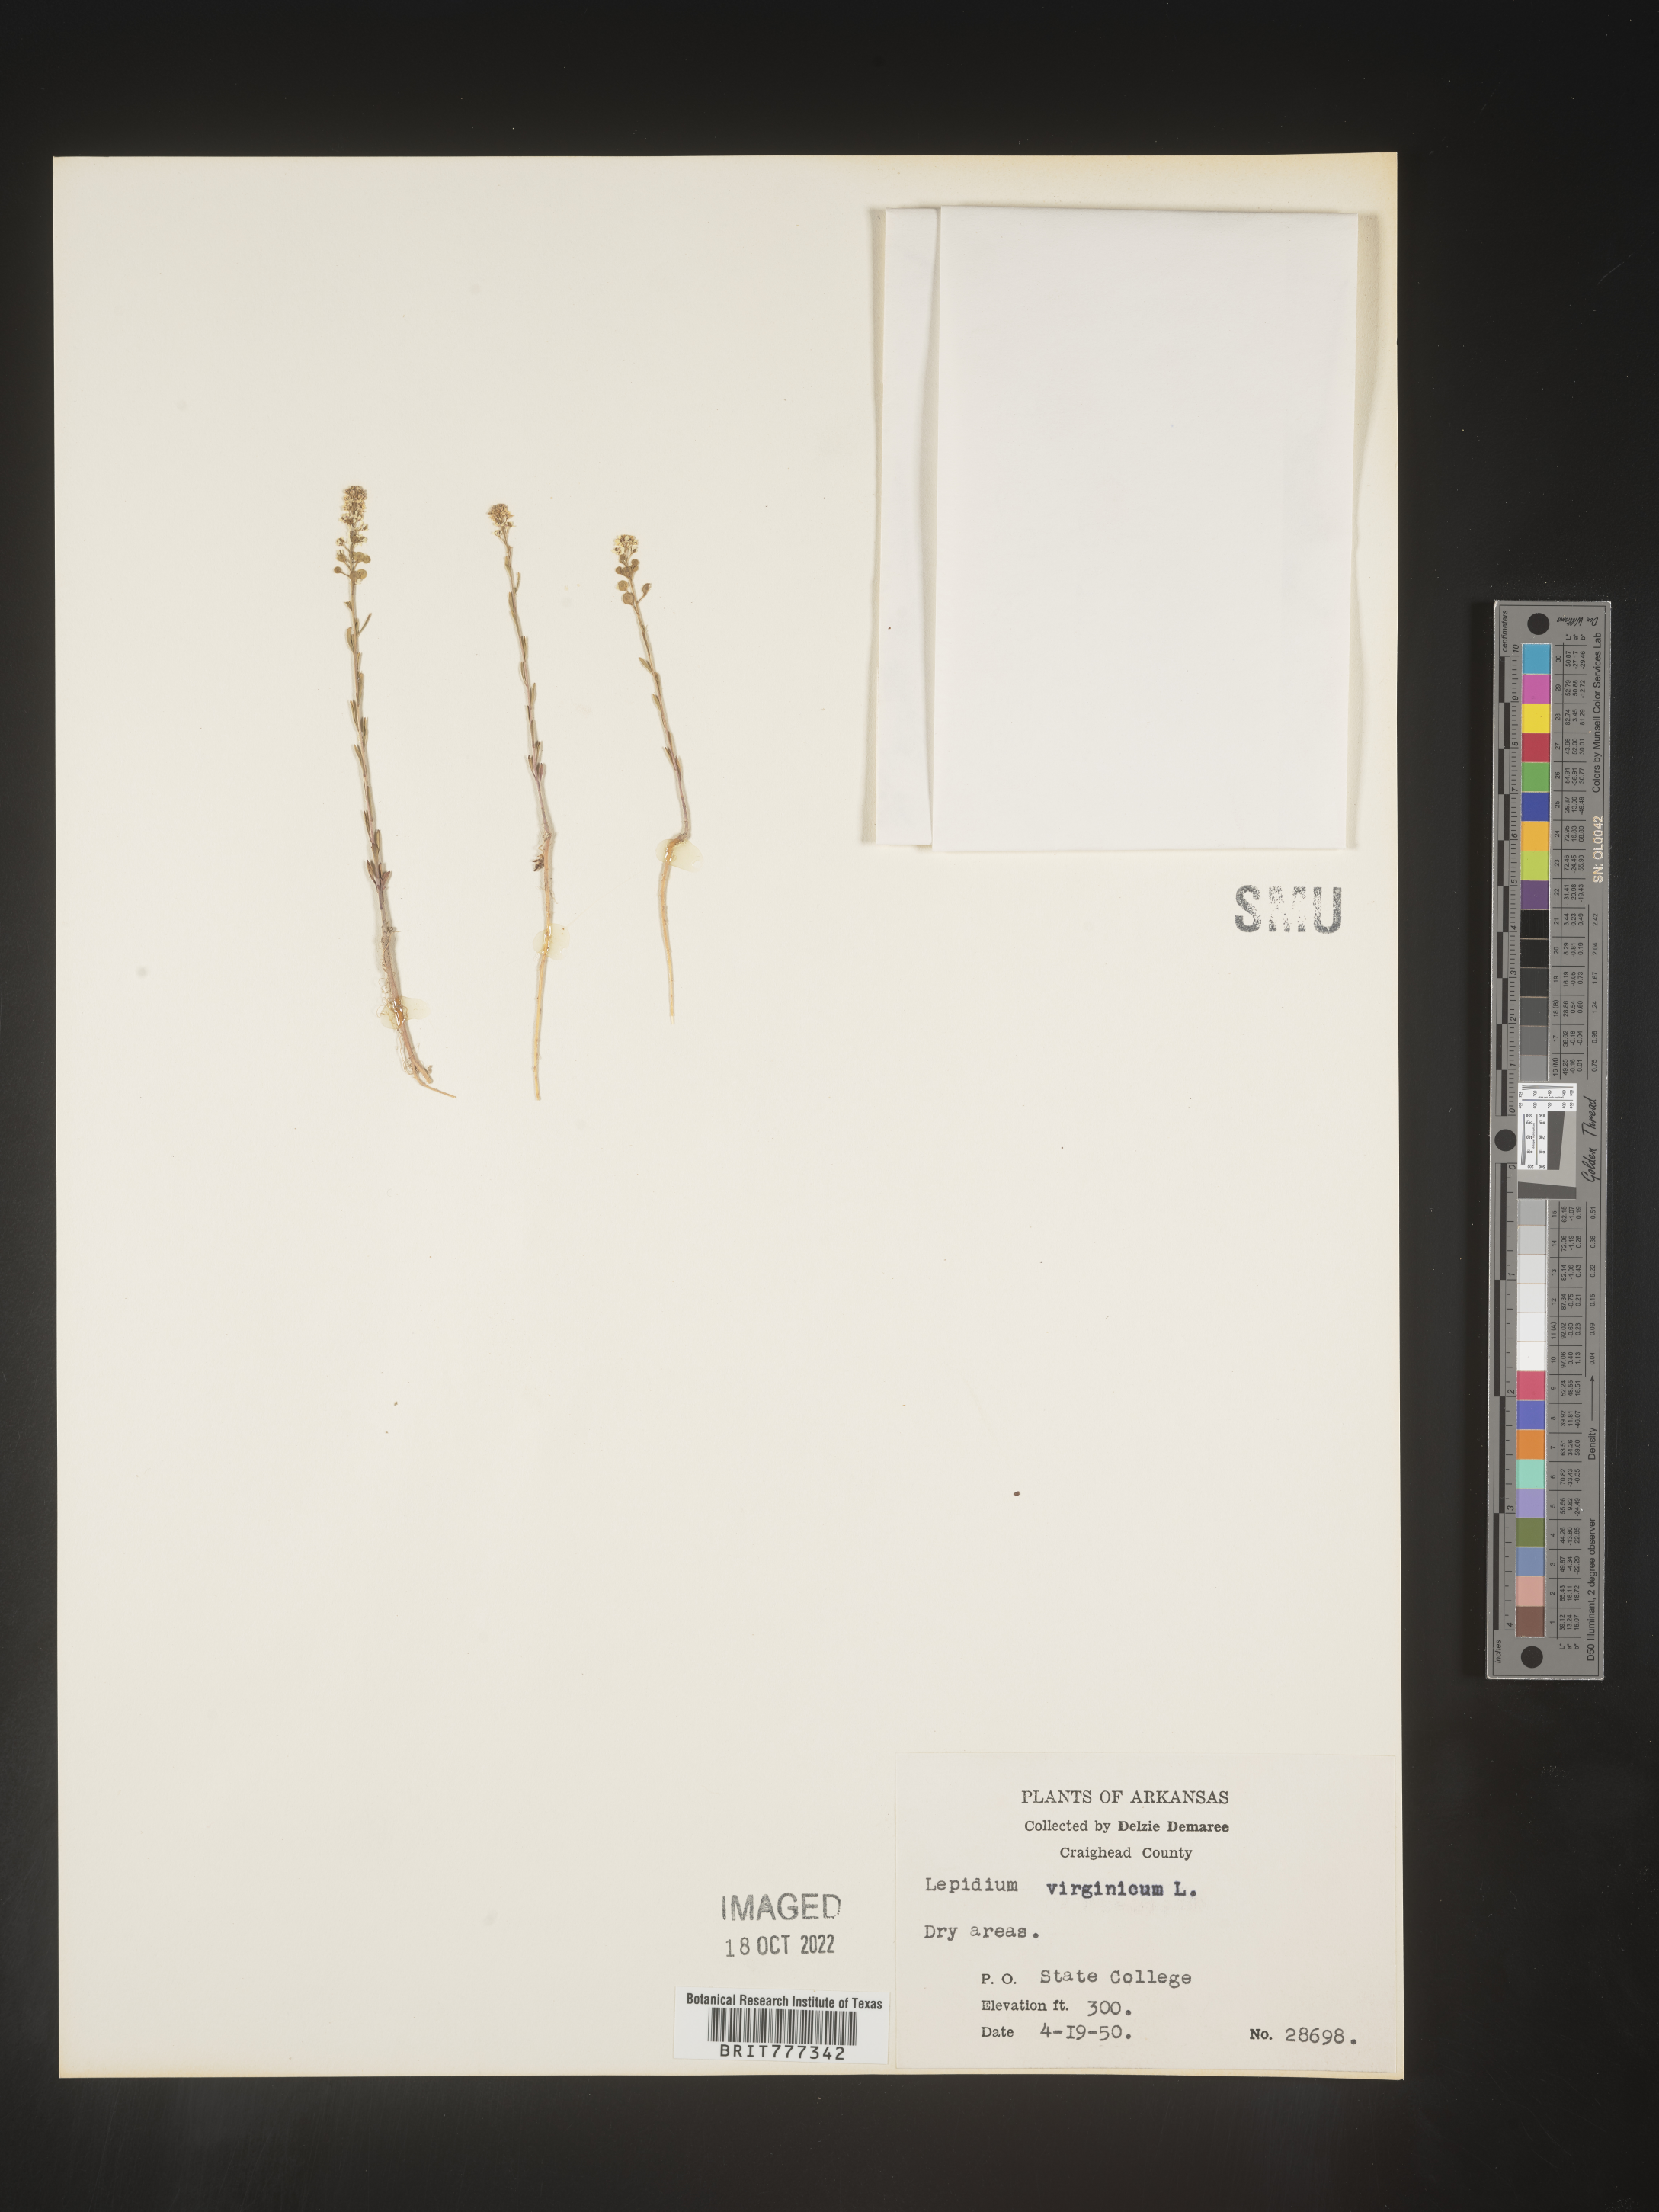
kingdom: Plantae
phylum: Tracheophyta
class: Magnoliopsida
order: Brassicales
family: Brassicaceae
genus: Lepidium
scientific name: Lepidium virginicum
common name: Least pepperwort
